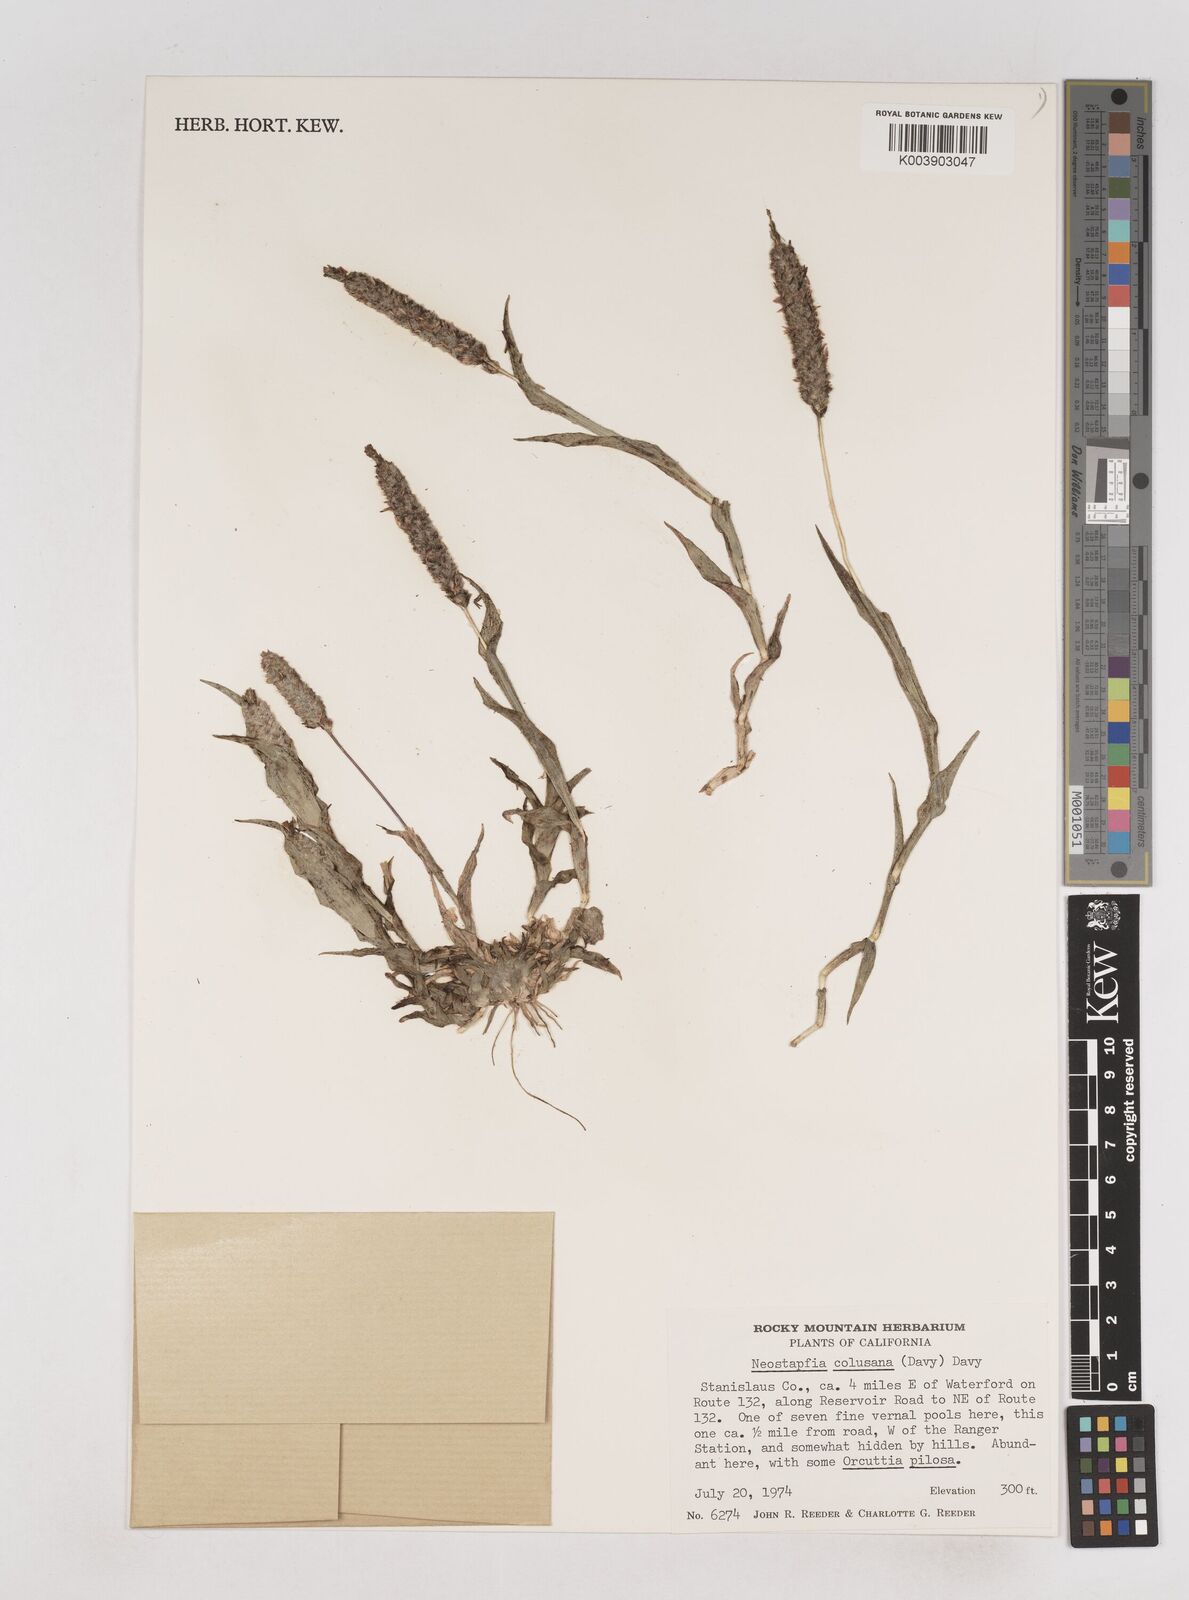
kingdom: Plantae
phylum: Tracheophyta
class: Liliopsida
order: Poales
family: Poaceae
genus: Neostapfia
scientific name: Neostapfia colusana
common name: Colusa grass
